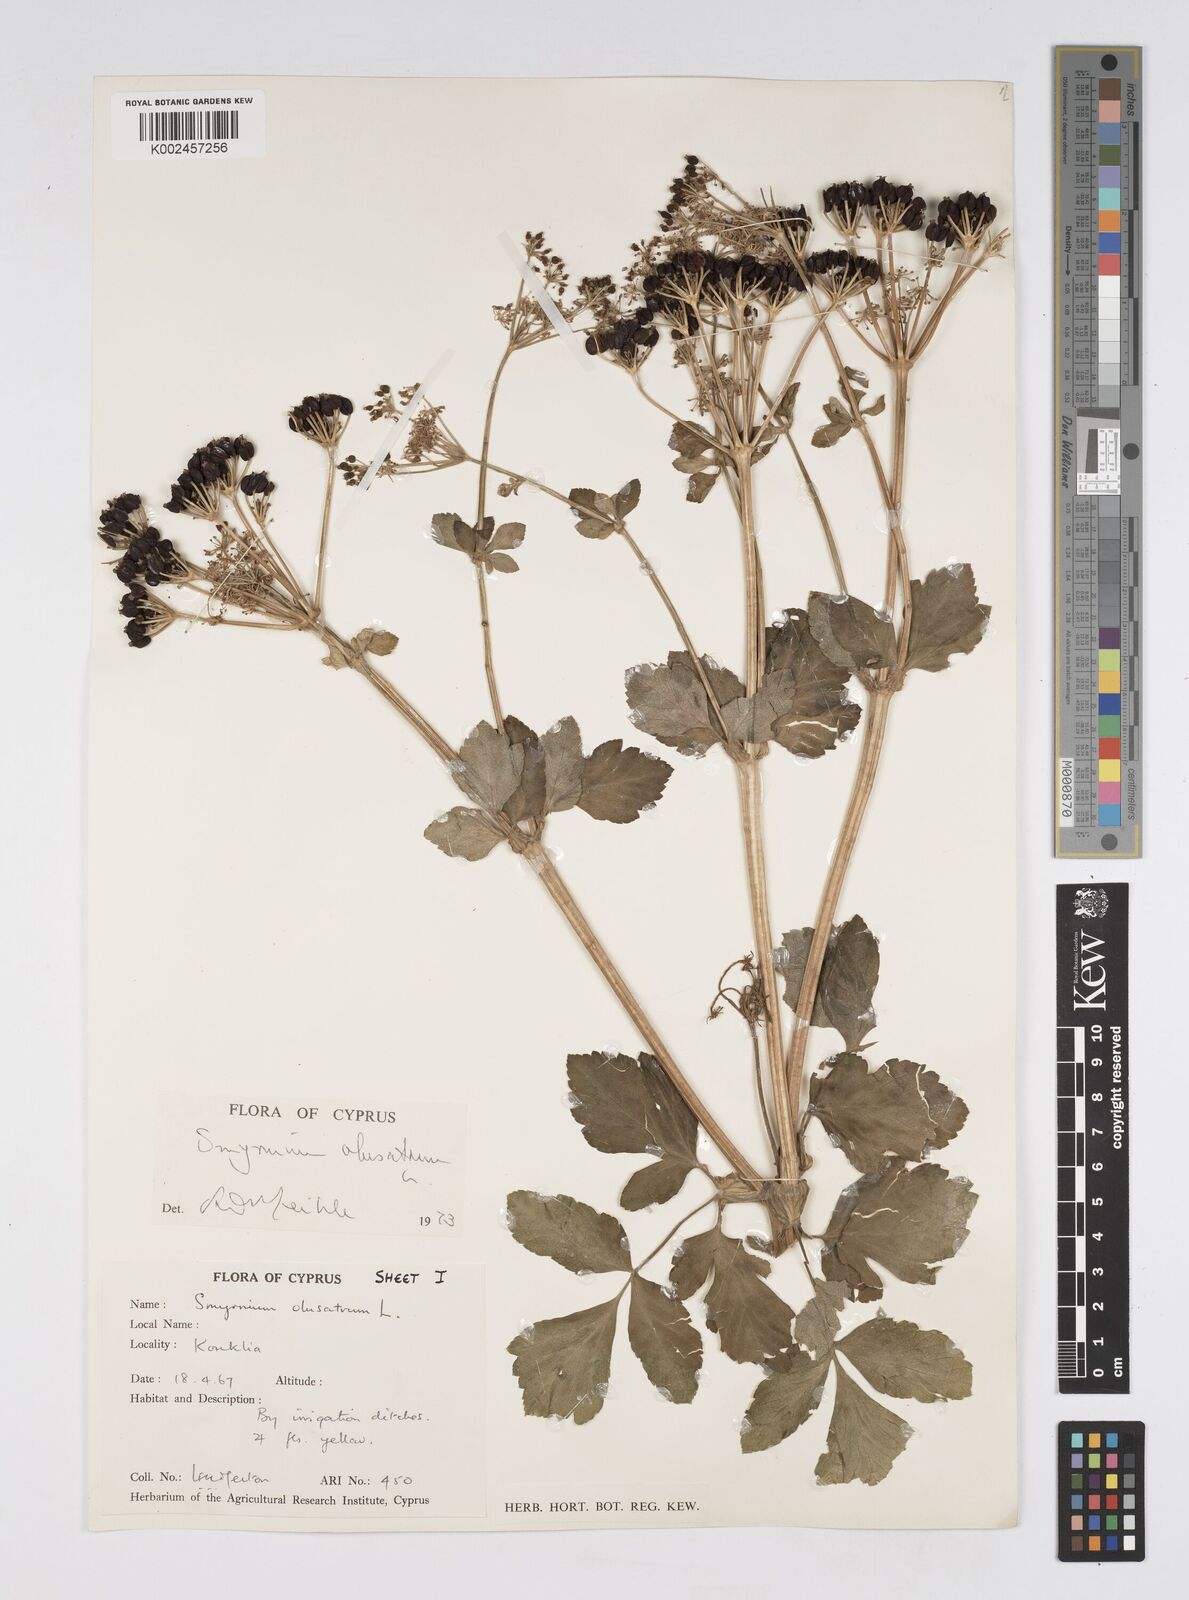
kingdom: Plantae
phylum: Tracheophyta
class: Magnoliopsida
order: Apiales
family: Apiaceae
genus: Smyrnium
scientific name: Smyrnium olusatrum
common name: Alexanders
